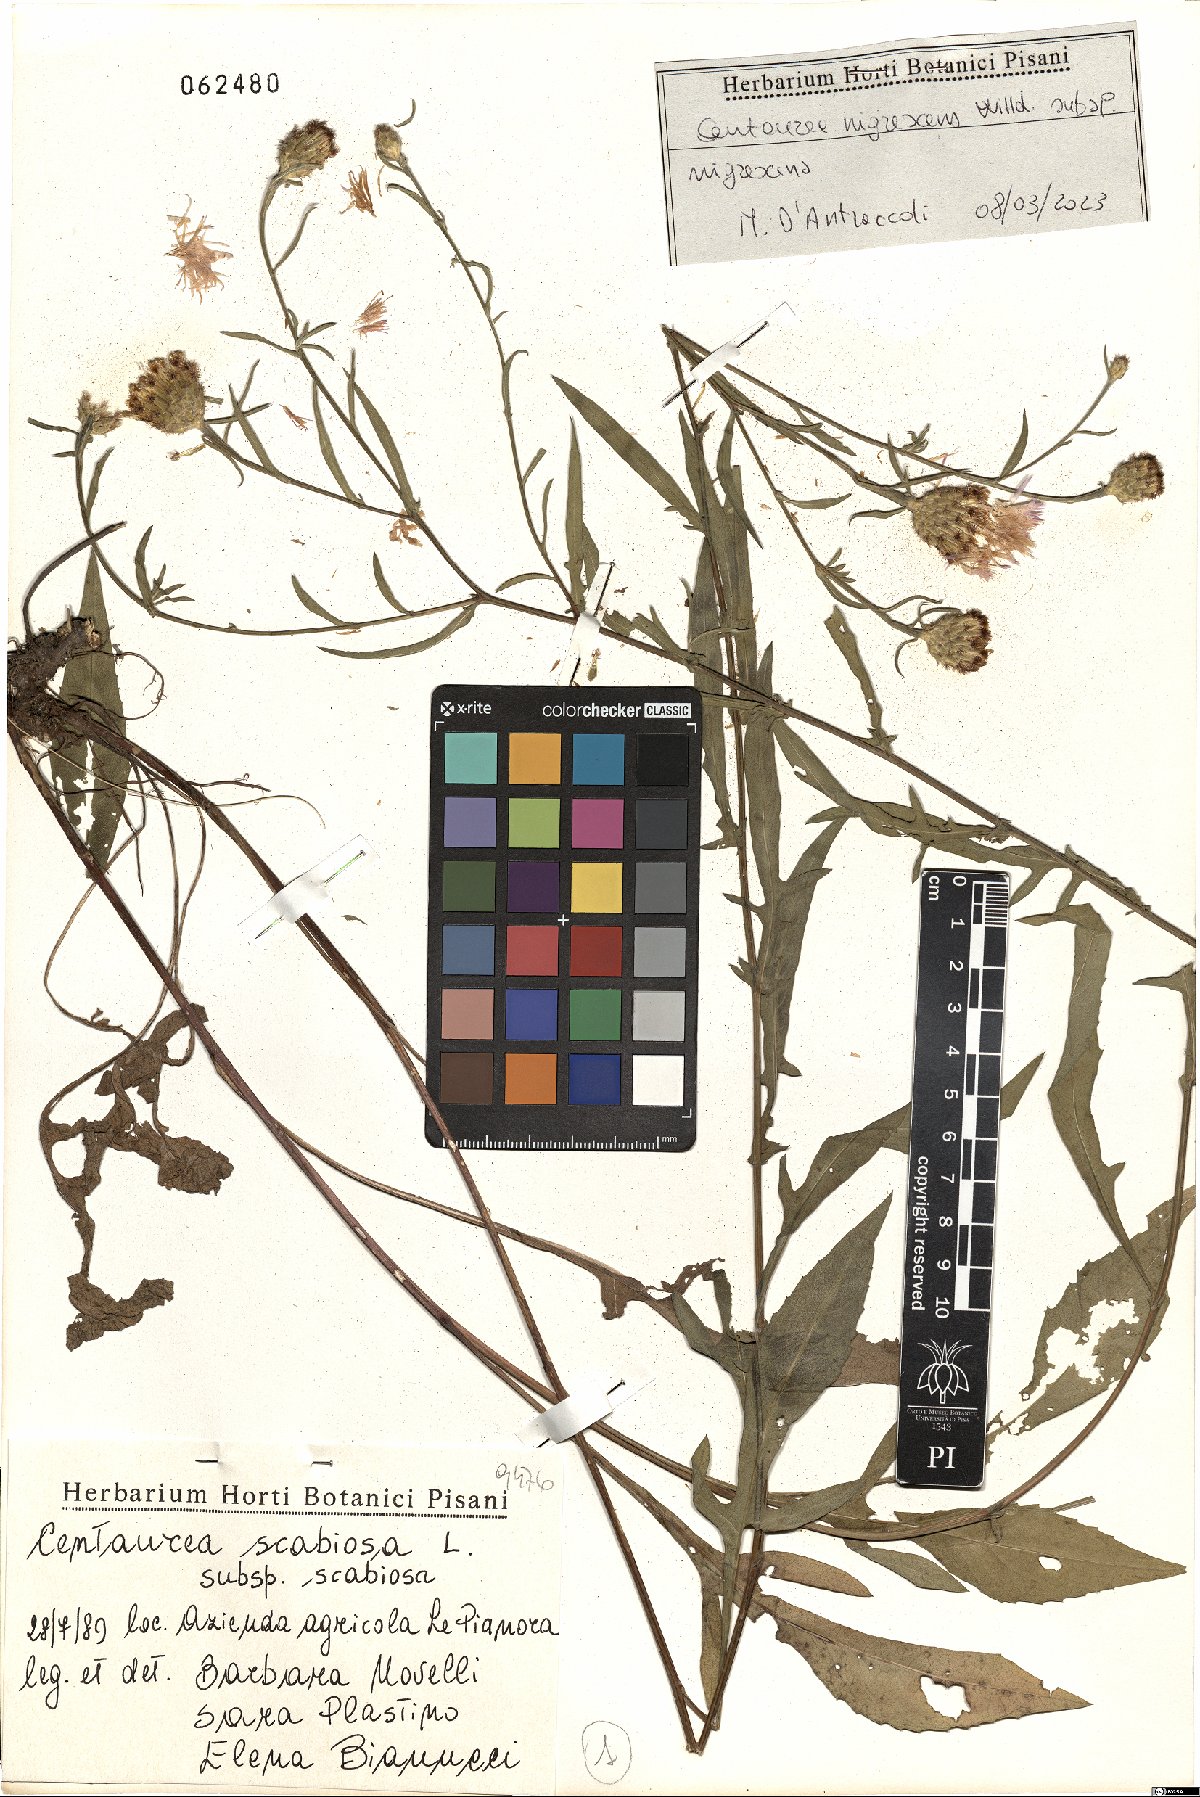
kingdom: Plantae
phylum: Tracheophyta
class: Magnoliopsida
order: Asterales
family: Asteraceae
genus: Centaurea
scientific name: Centaurea nigrescens
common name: Tyrol knapweed
